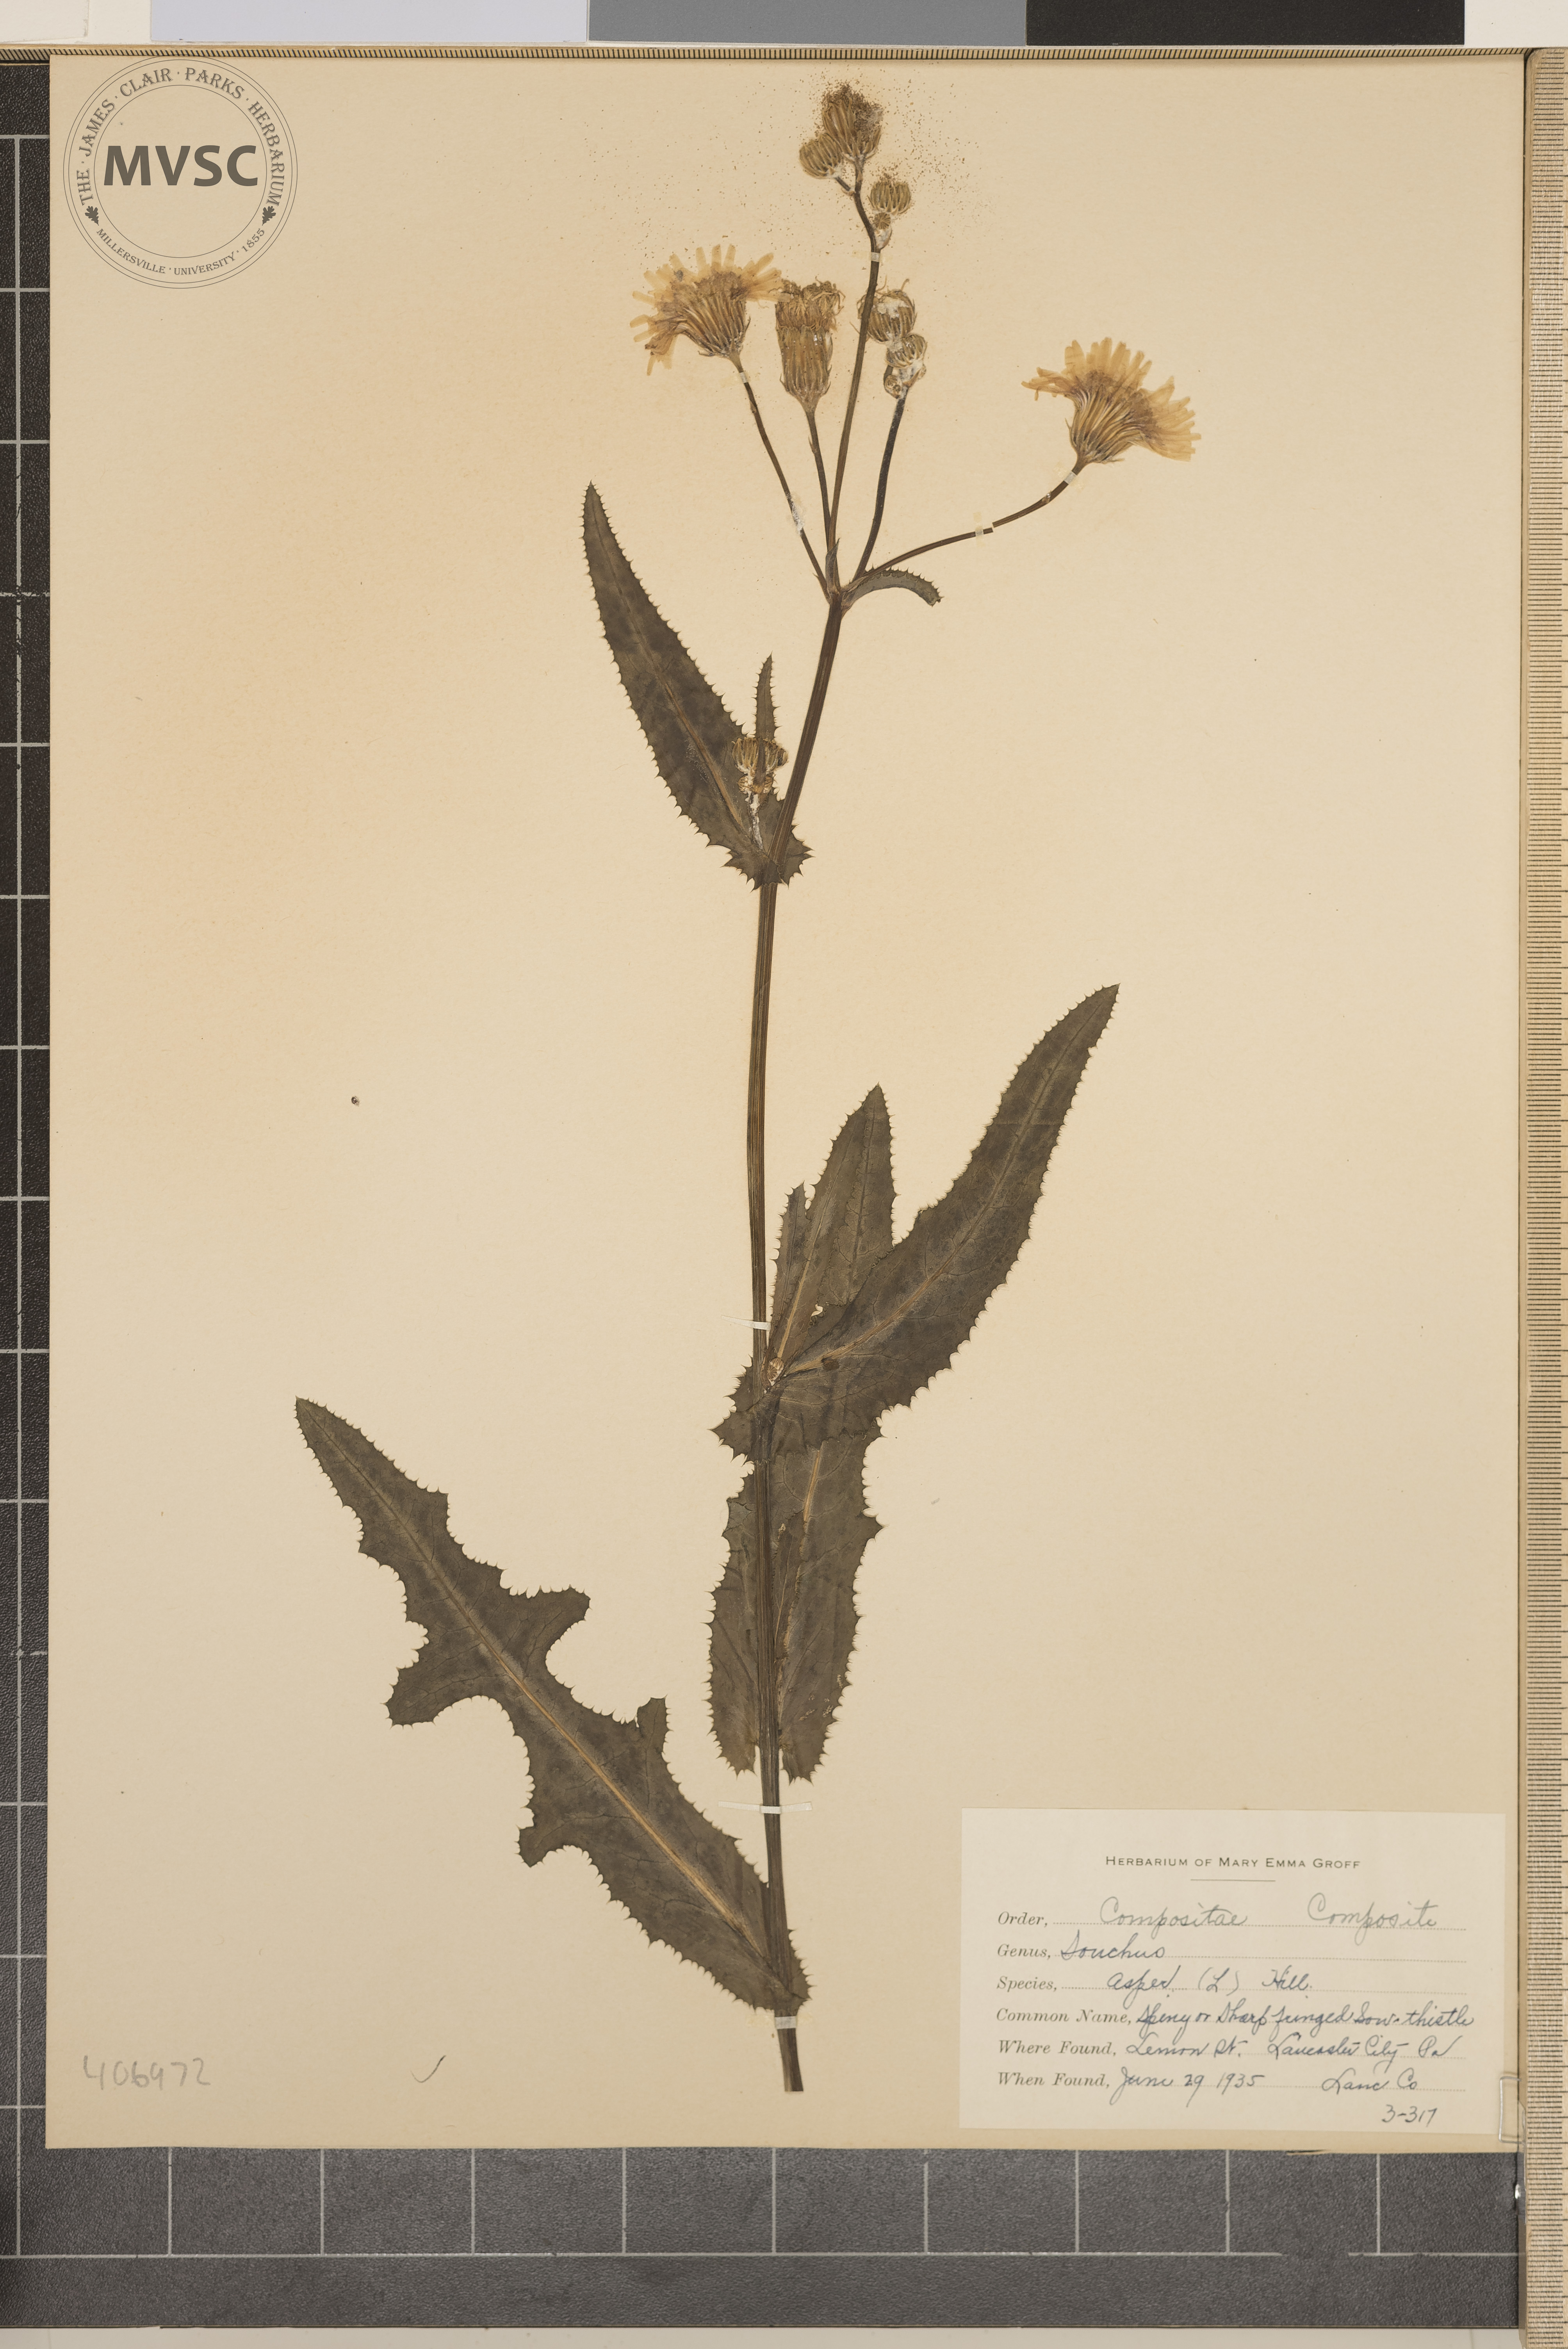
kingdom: Plantae
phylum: Tracheophyta
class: Magnoliopsida
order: Asterales
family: Asteraceae
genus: Sonchus
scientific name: Sonchus asper
